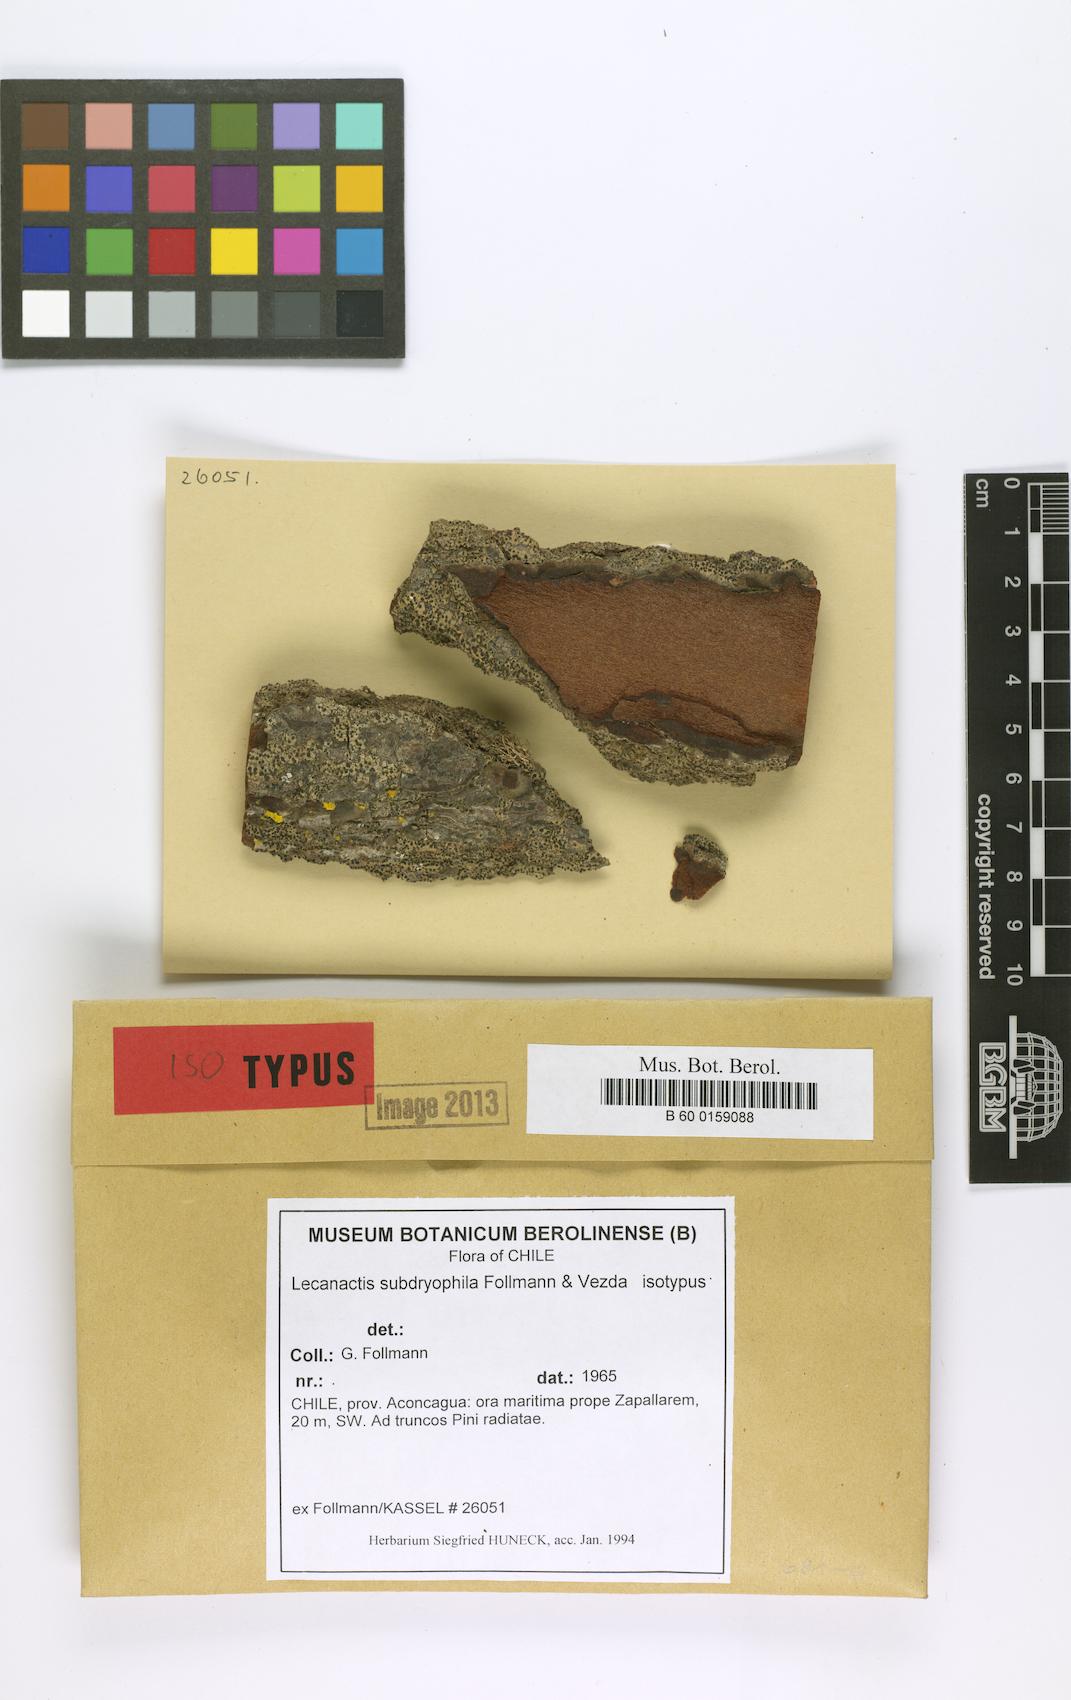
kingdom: Fungi
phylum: Ascomycota
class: Arthoniomycetes
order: Arthoniales
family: Lecanographaceae
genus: Lecanographa
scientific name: Lecanographa subdryophila
